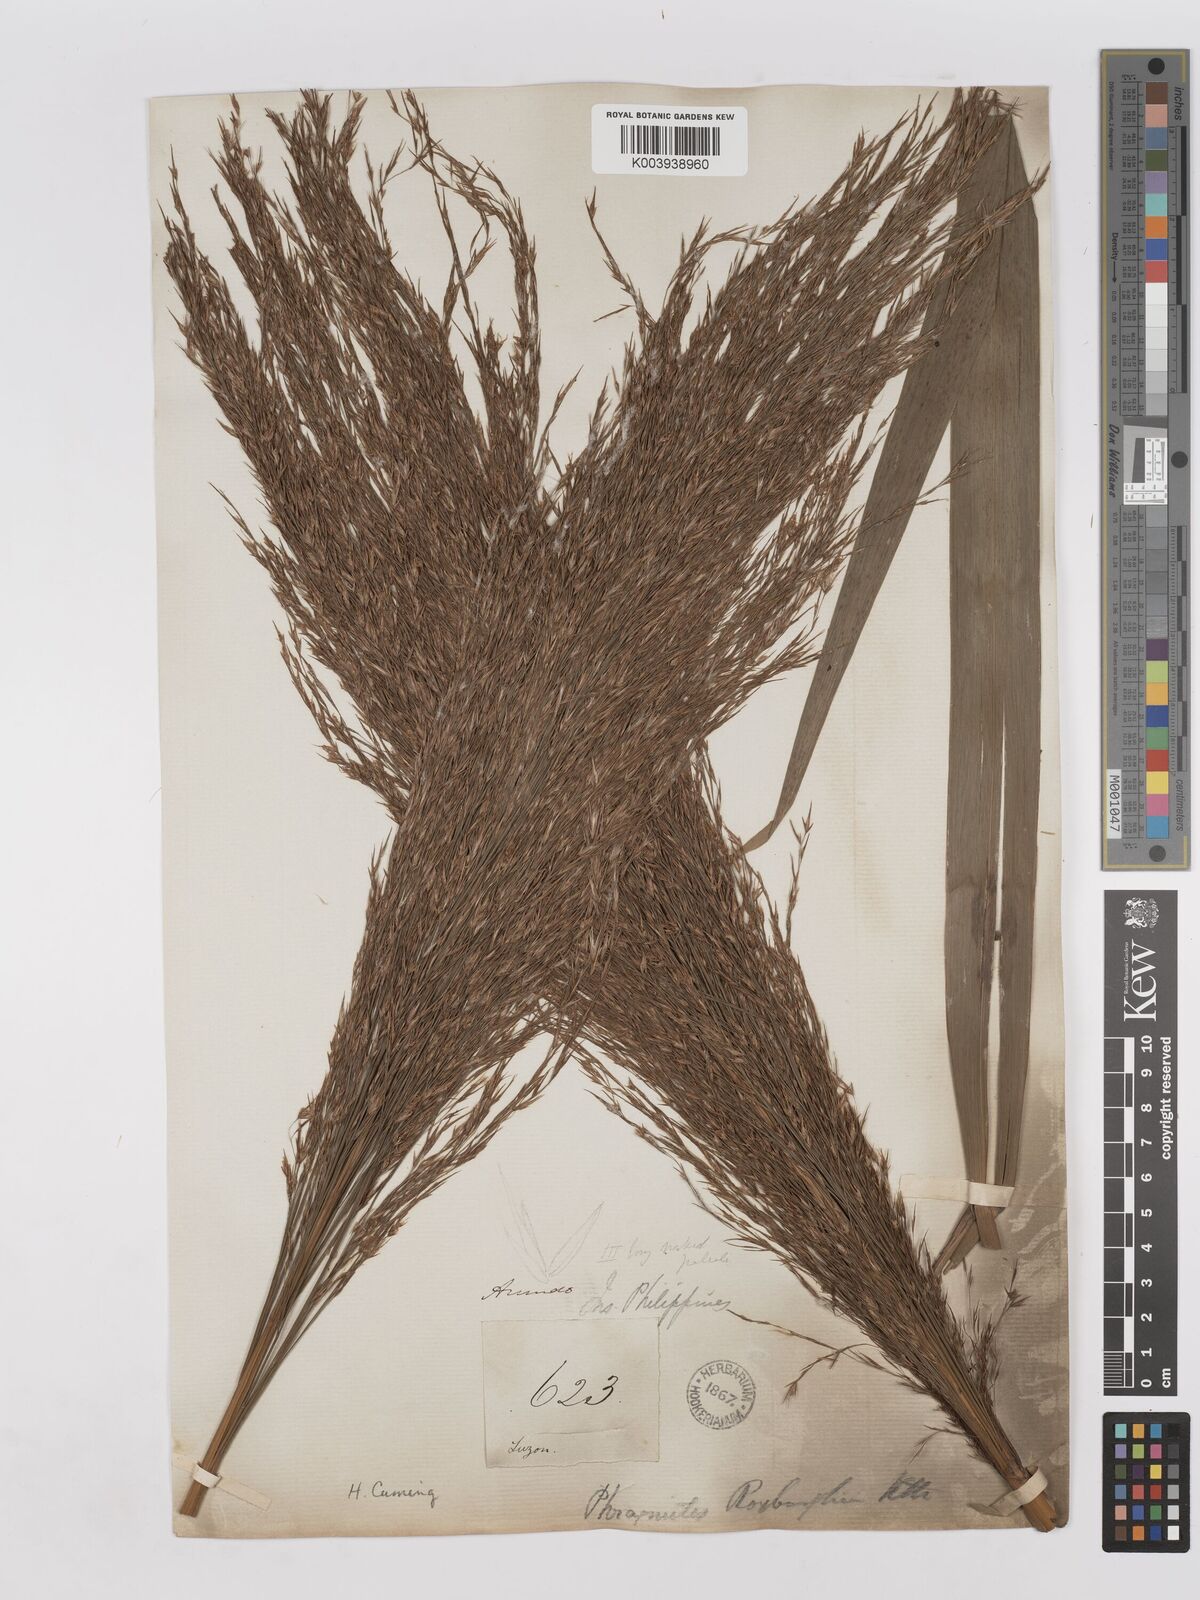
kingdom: Plantae
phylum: Tracheophyta
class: Liliopsida
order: Poales
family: Poaceae
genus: Phragmites
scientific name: Phragmites karka
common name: Tropical reed
